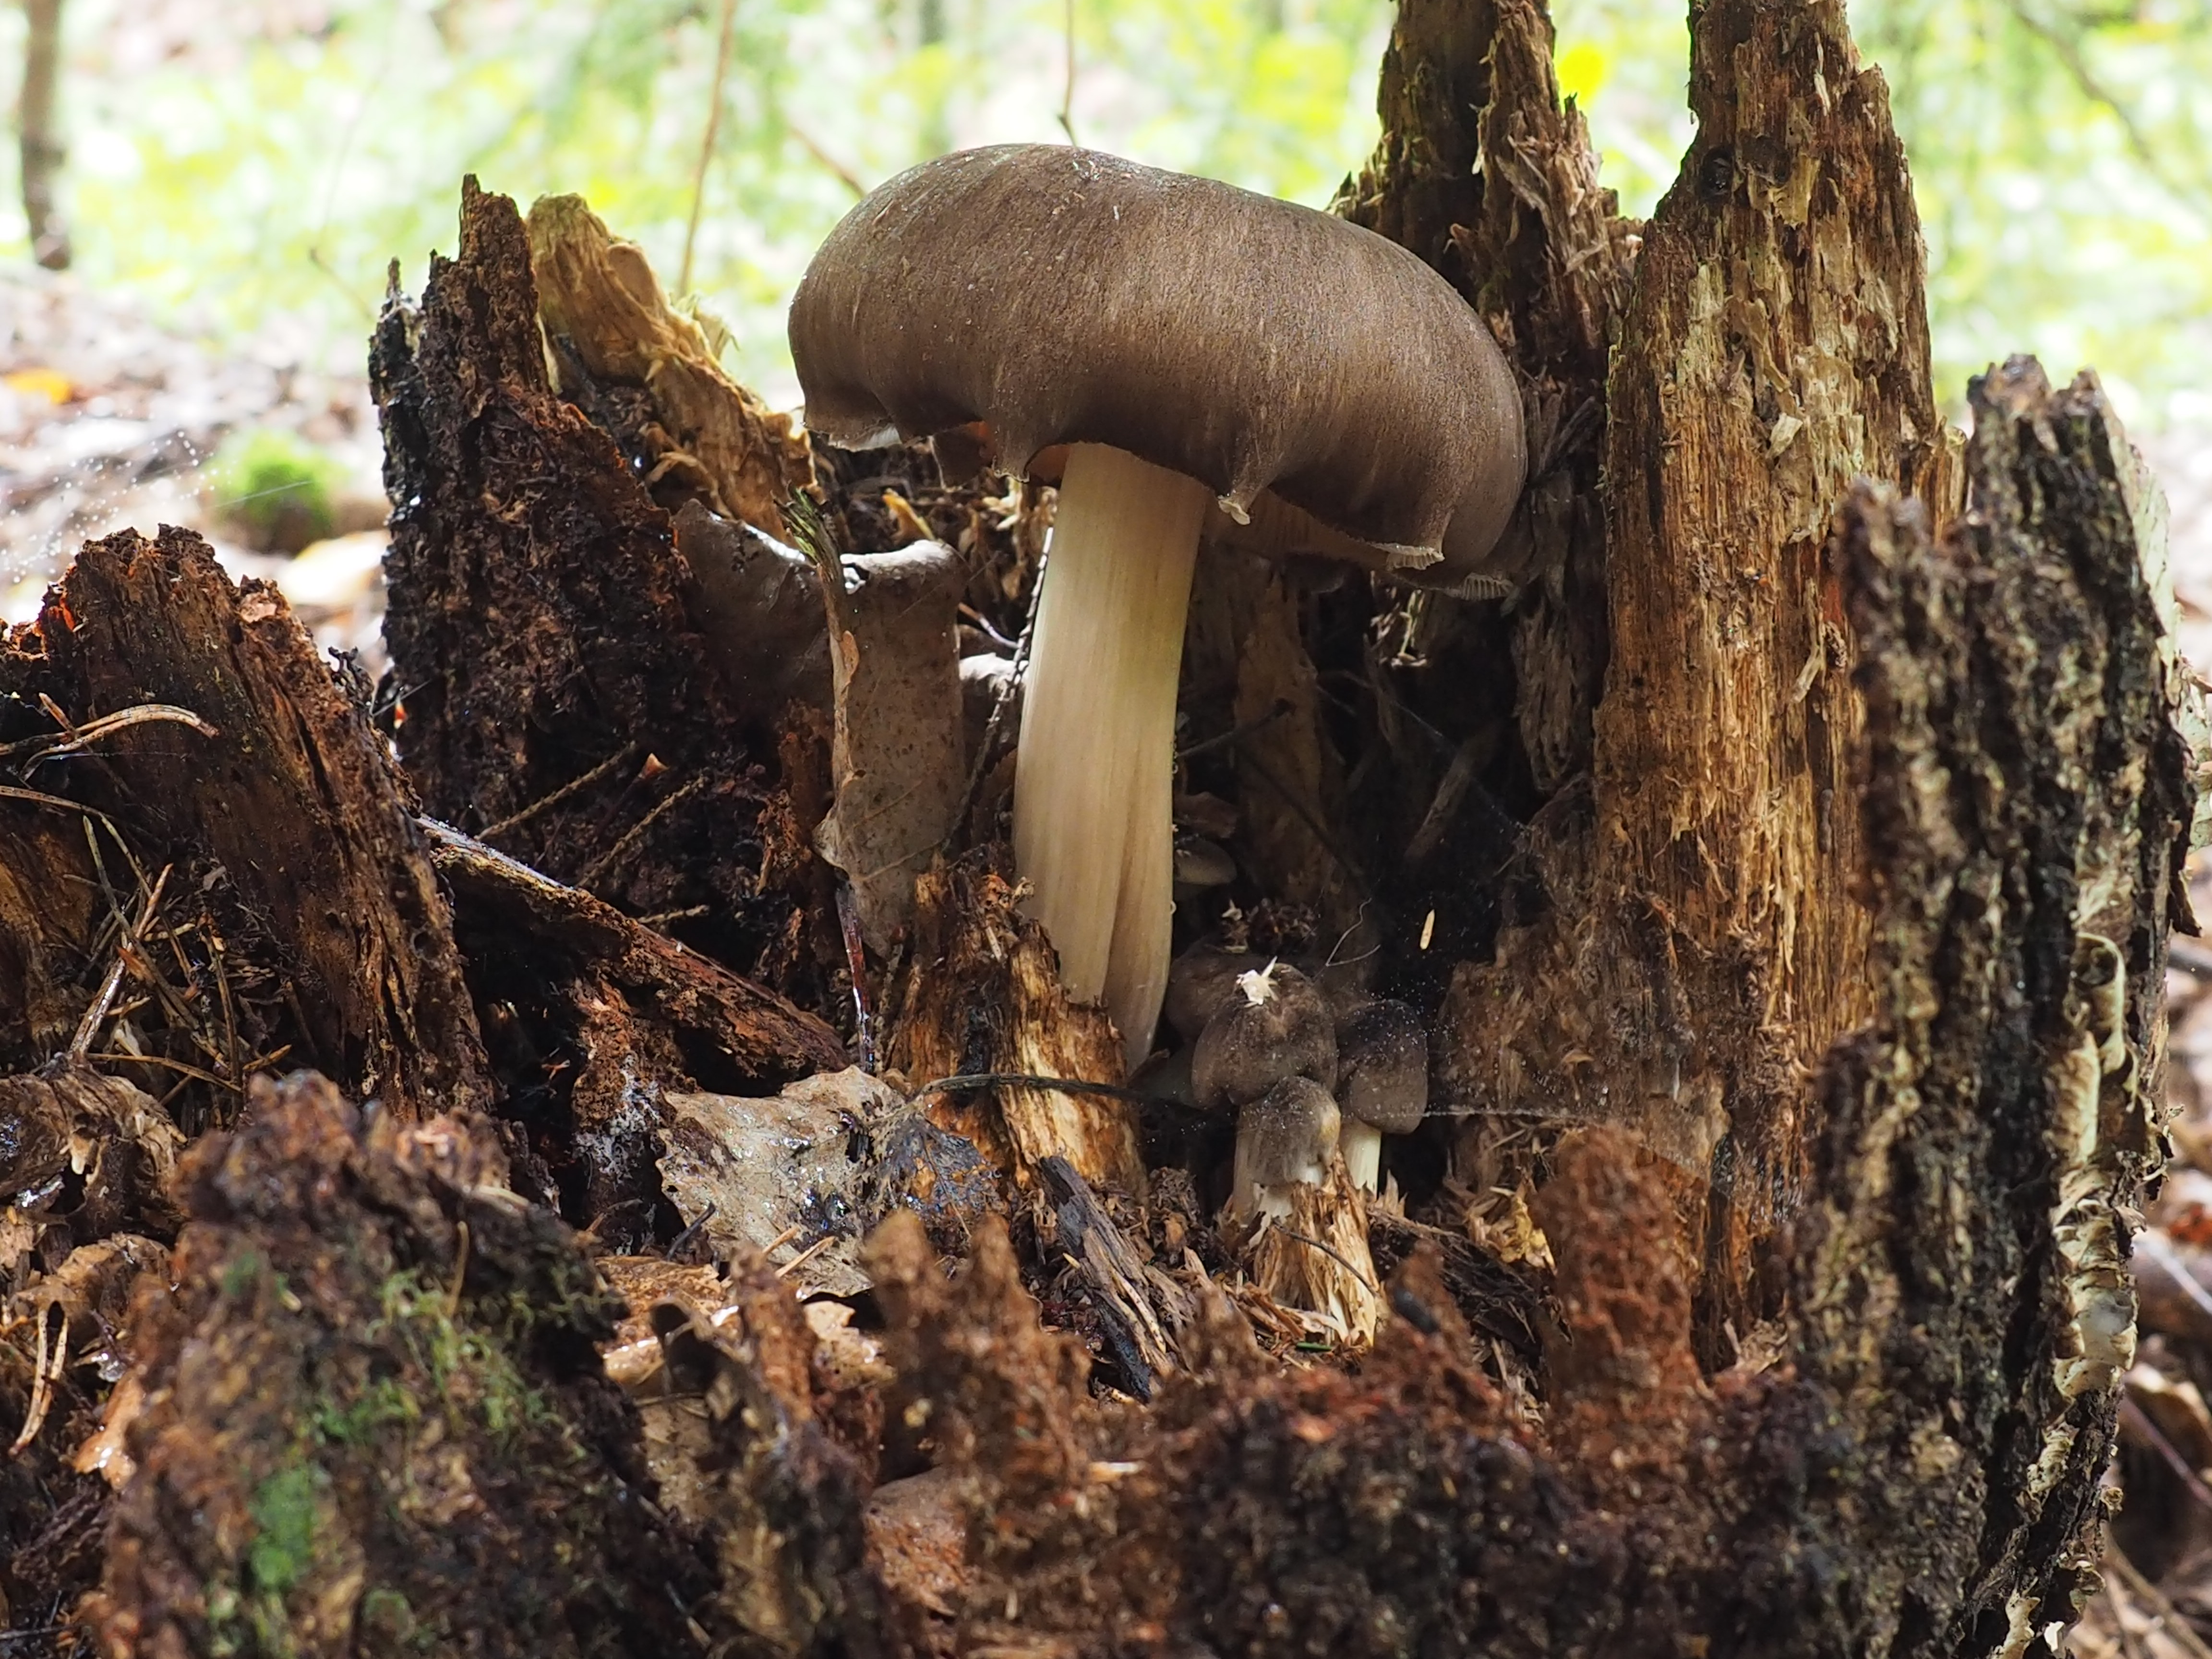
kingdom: Fungi
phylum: Basidiomycota
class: Agaricomycetes
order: Agaricales
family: Tricholomataceae
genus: Megacollybia
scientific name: Megacollybia platyphylla
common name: Whitelaced shank
